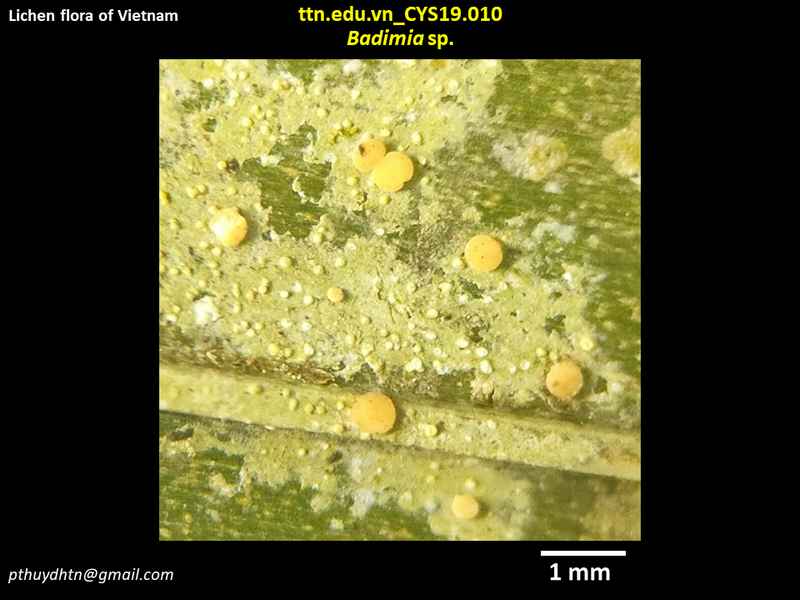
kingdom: Fungi
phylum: Ascomycota
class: Lecanoromycetes
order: Lecanorales
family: Ramalinaceae
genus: Badimia
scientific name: Badimia
